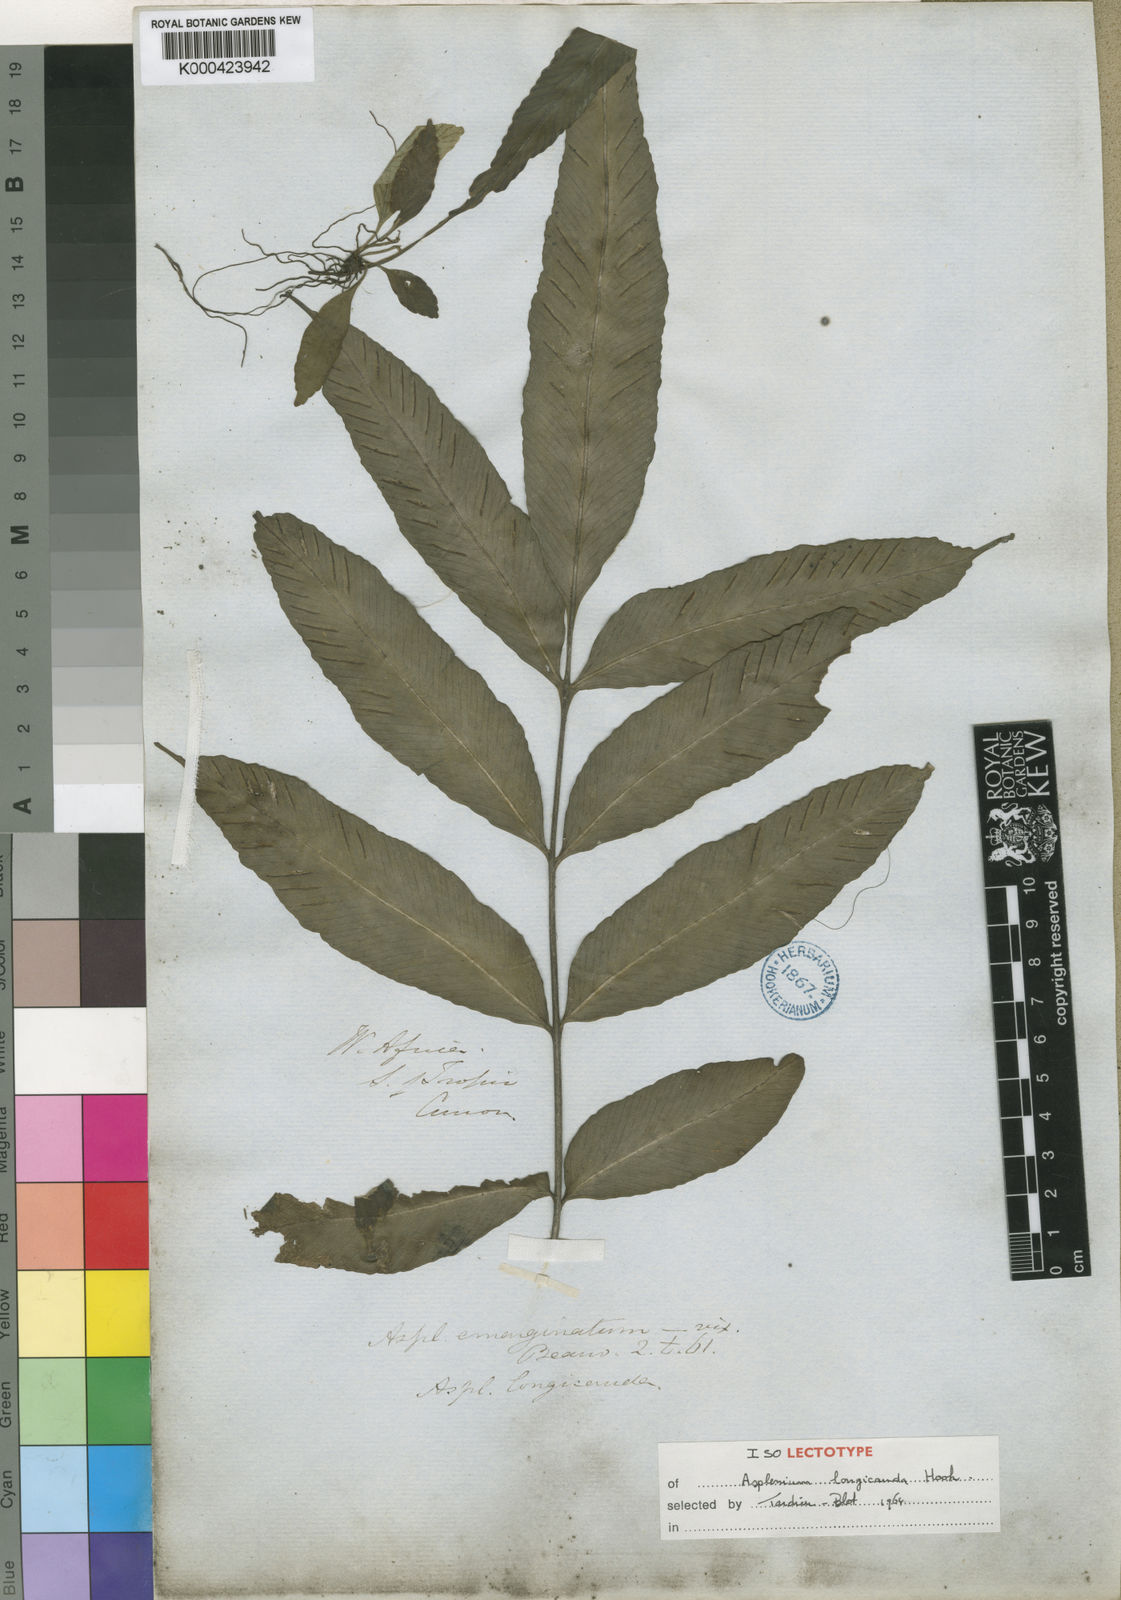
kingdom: Plantae
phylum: Tracheophyta
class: Polypodiopsida
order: Polypodiales
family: Aspleniaceae
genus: Asplenium
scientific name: Asplenium longicauda
